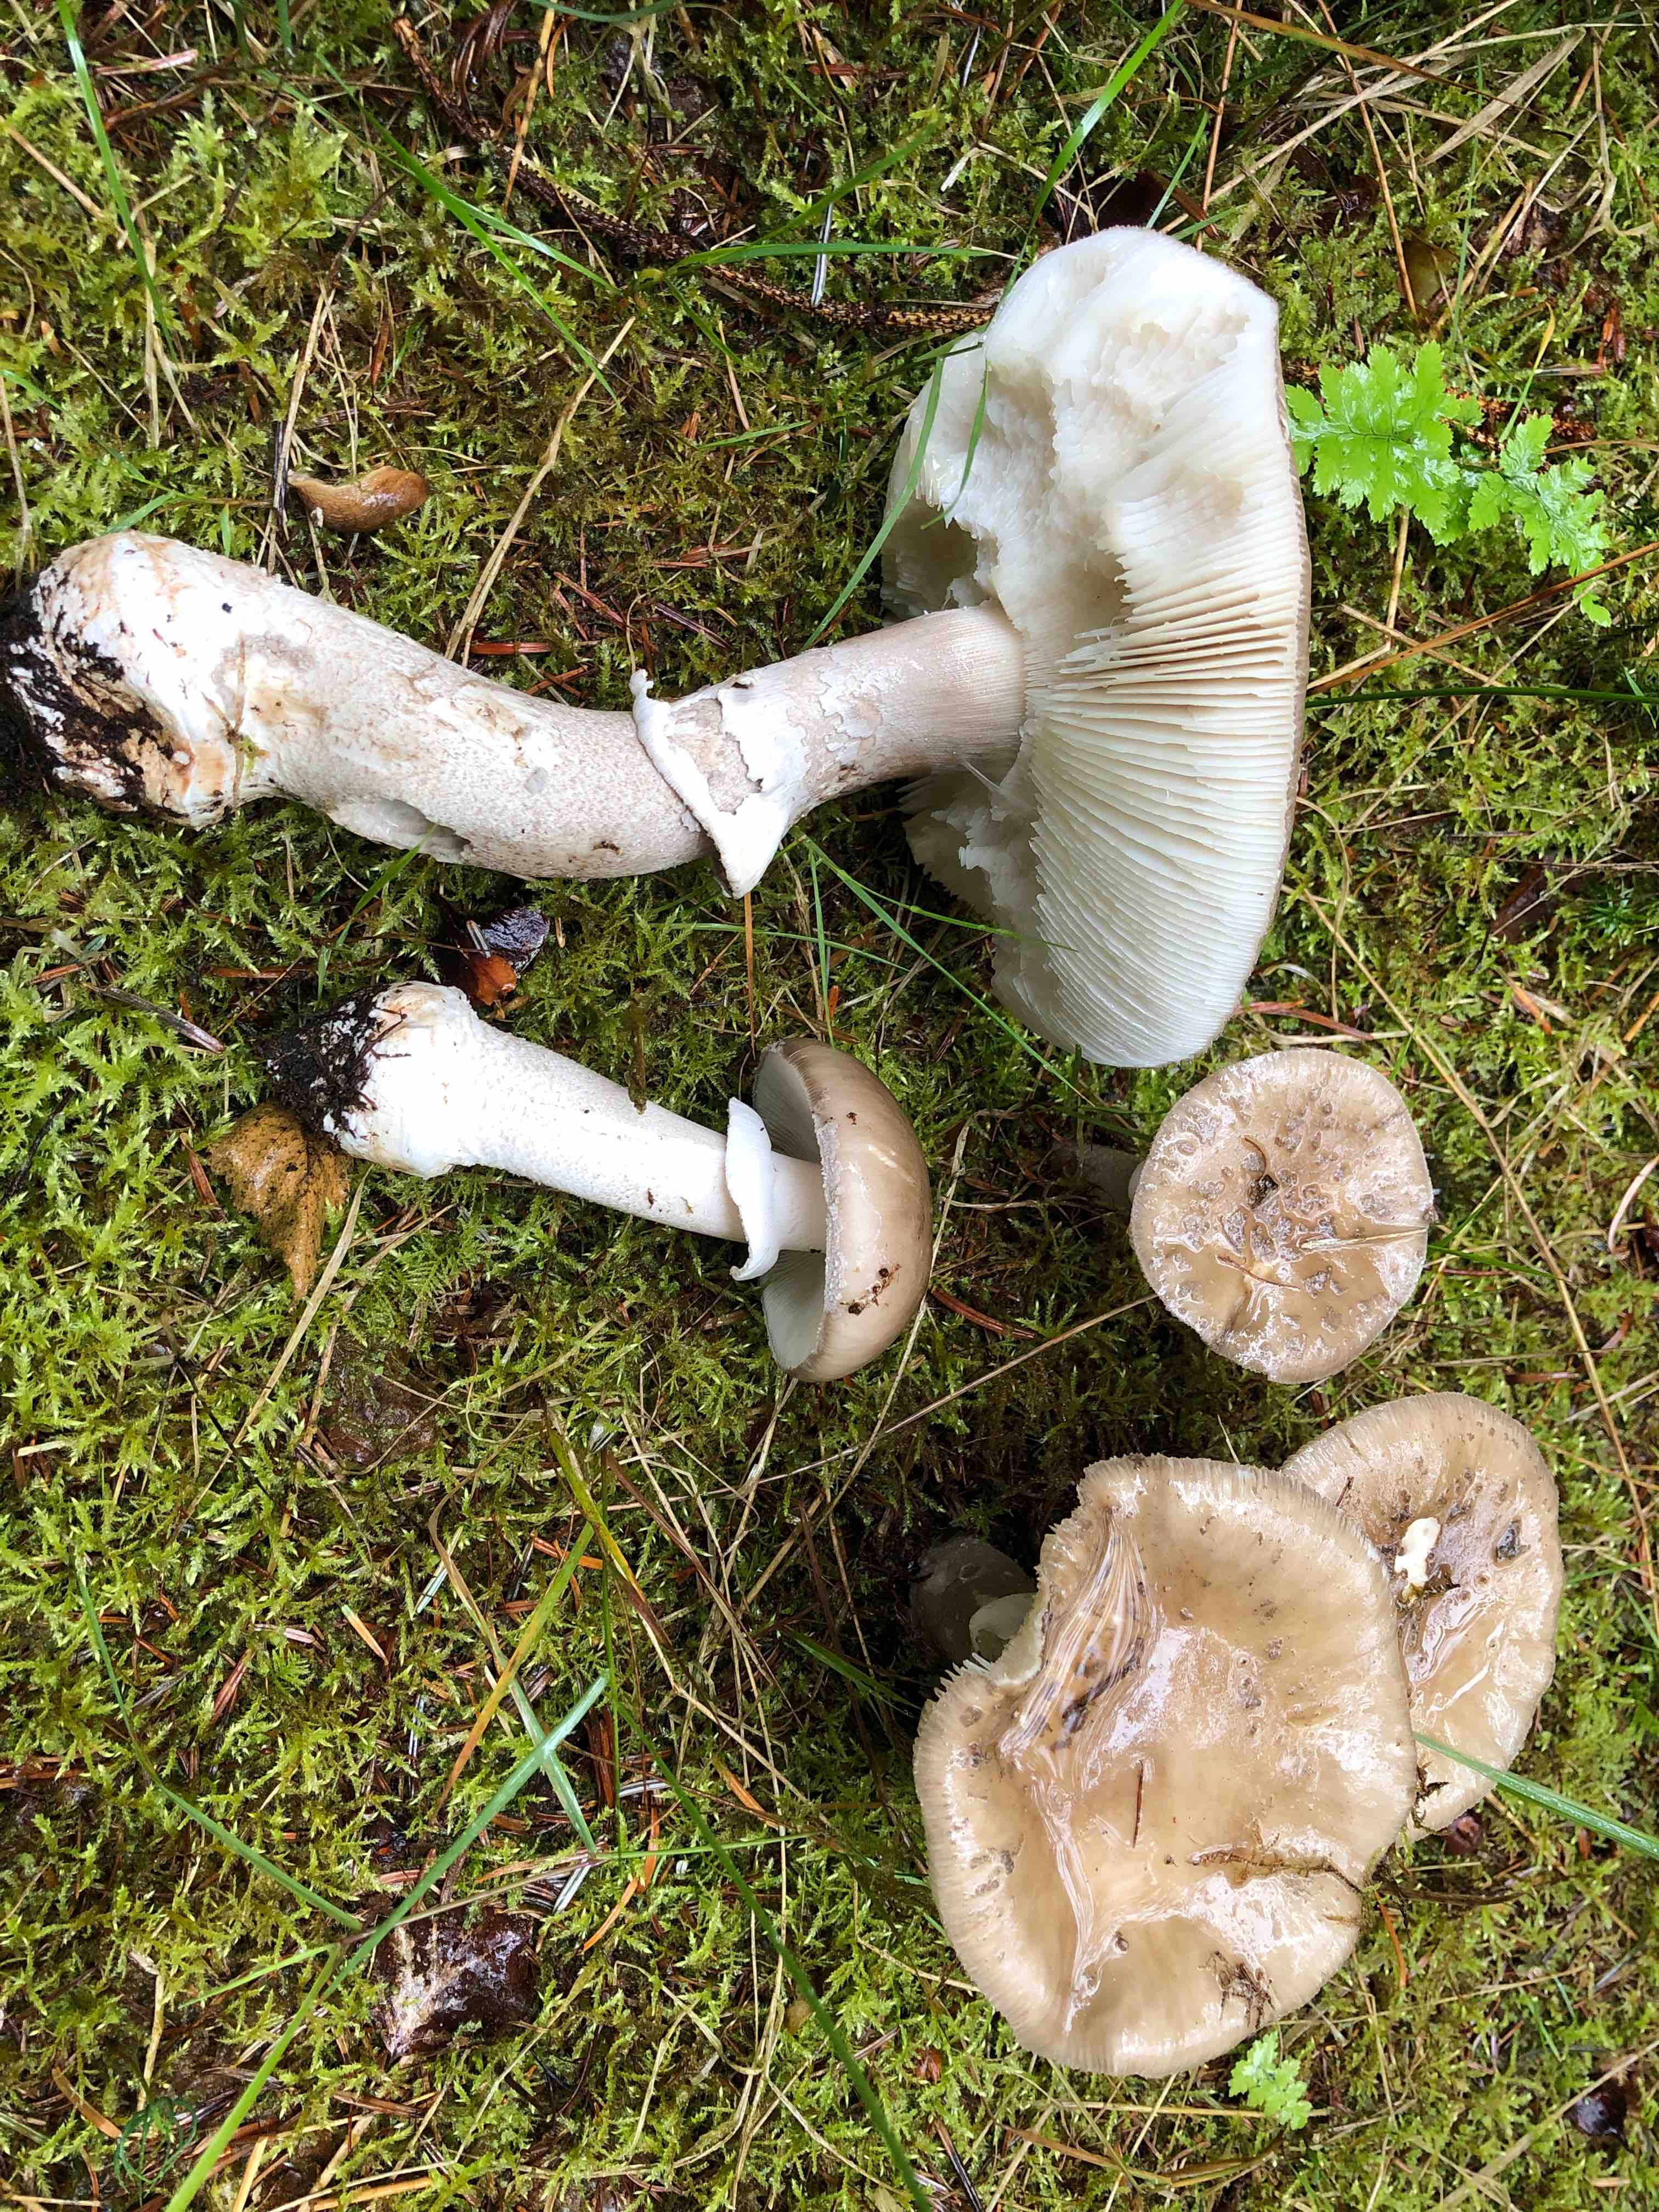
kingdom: Fungi
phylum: Basidiomycota
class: Agaricomycetes
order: Agaricales
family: Amanitaceae
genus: Amanita
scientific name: Amanita porphyria
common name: porfyr-fluesvamp
